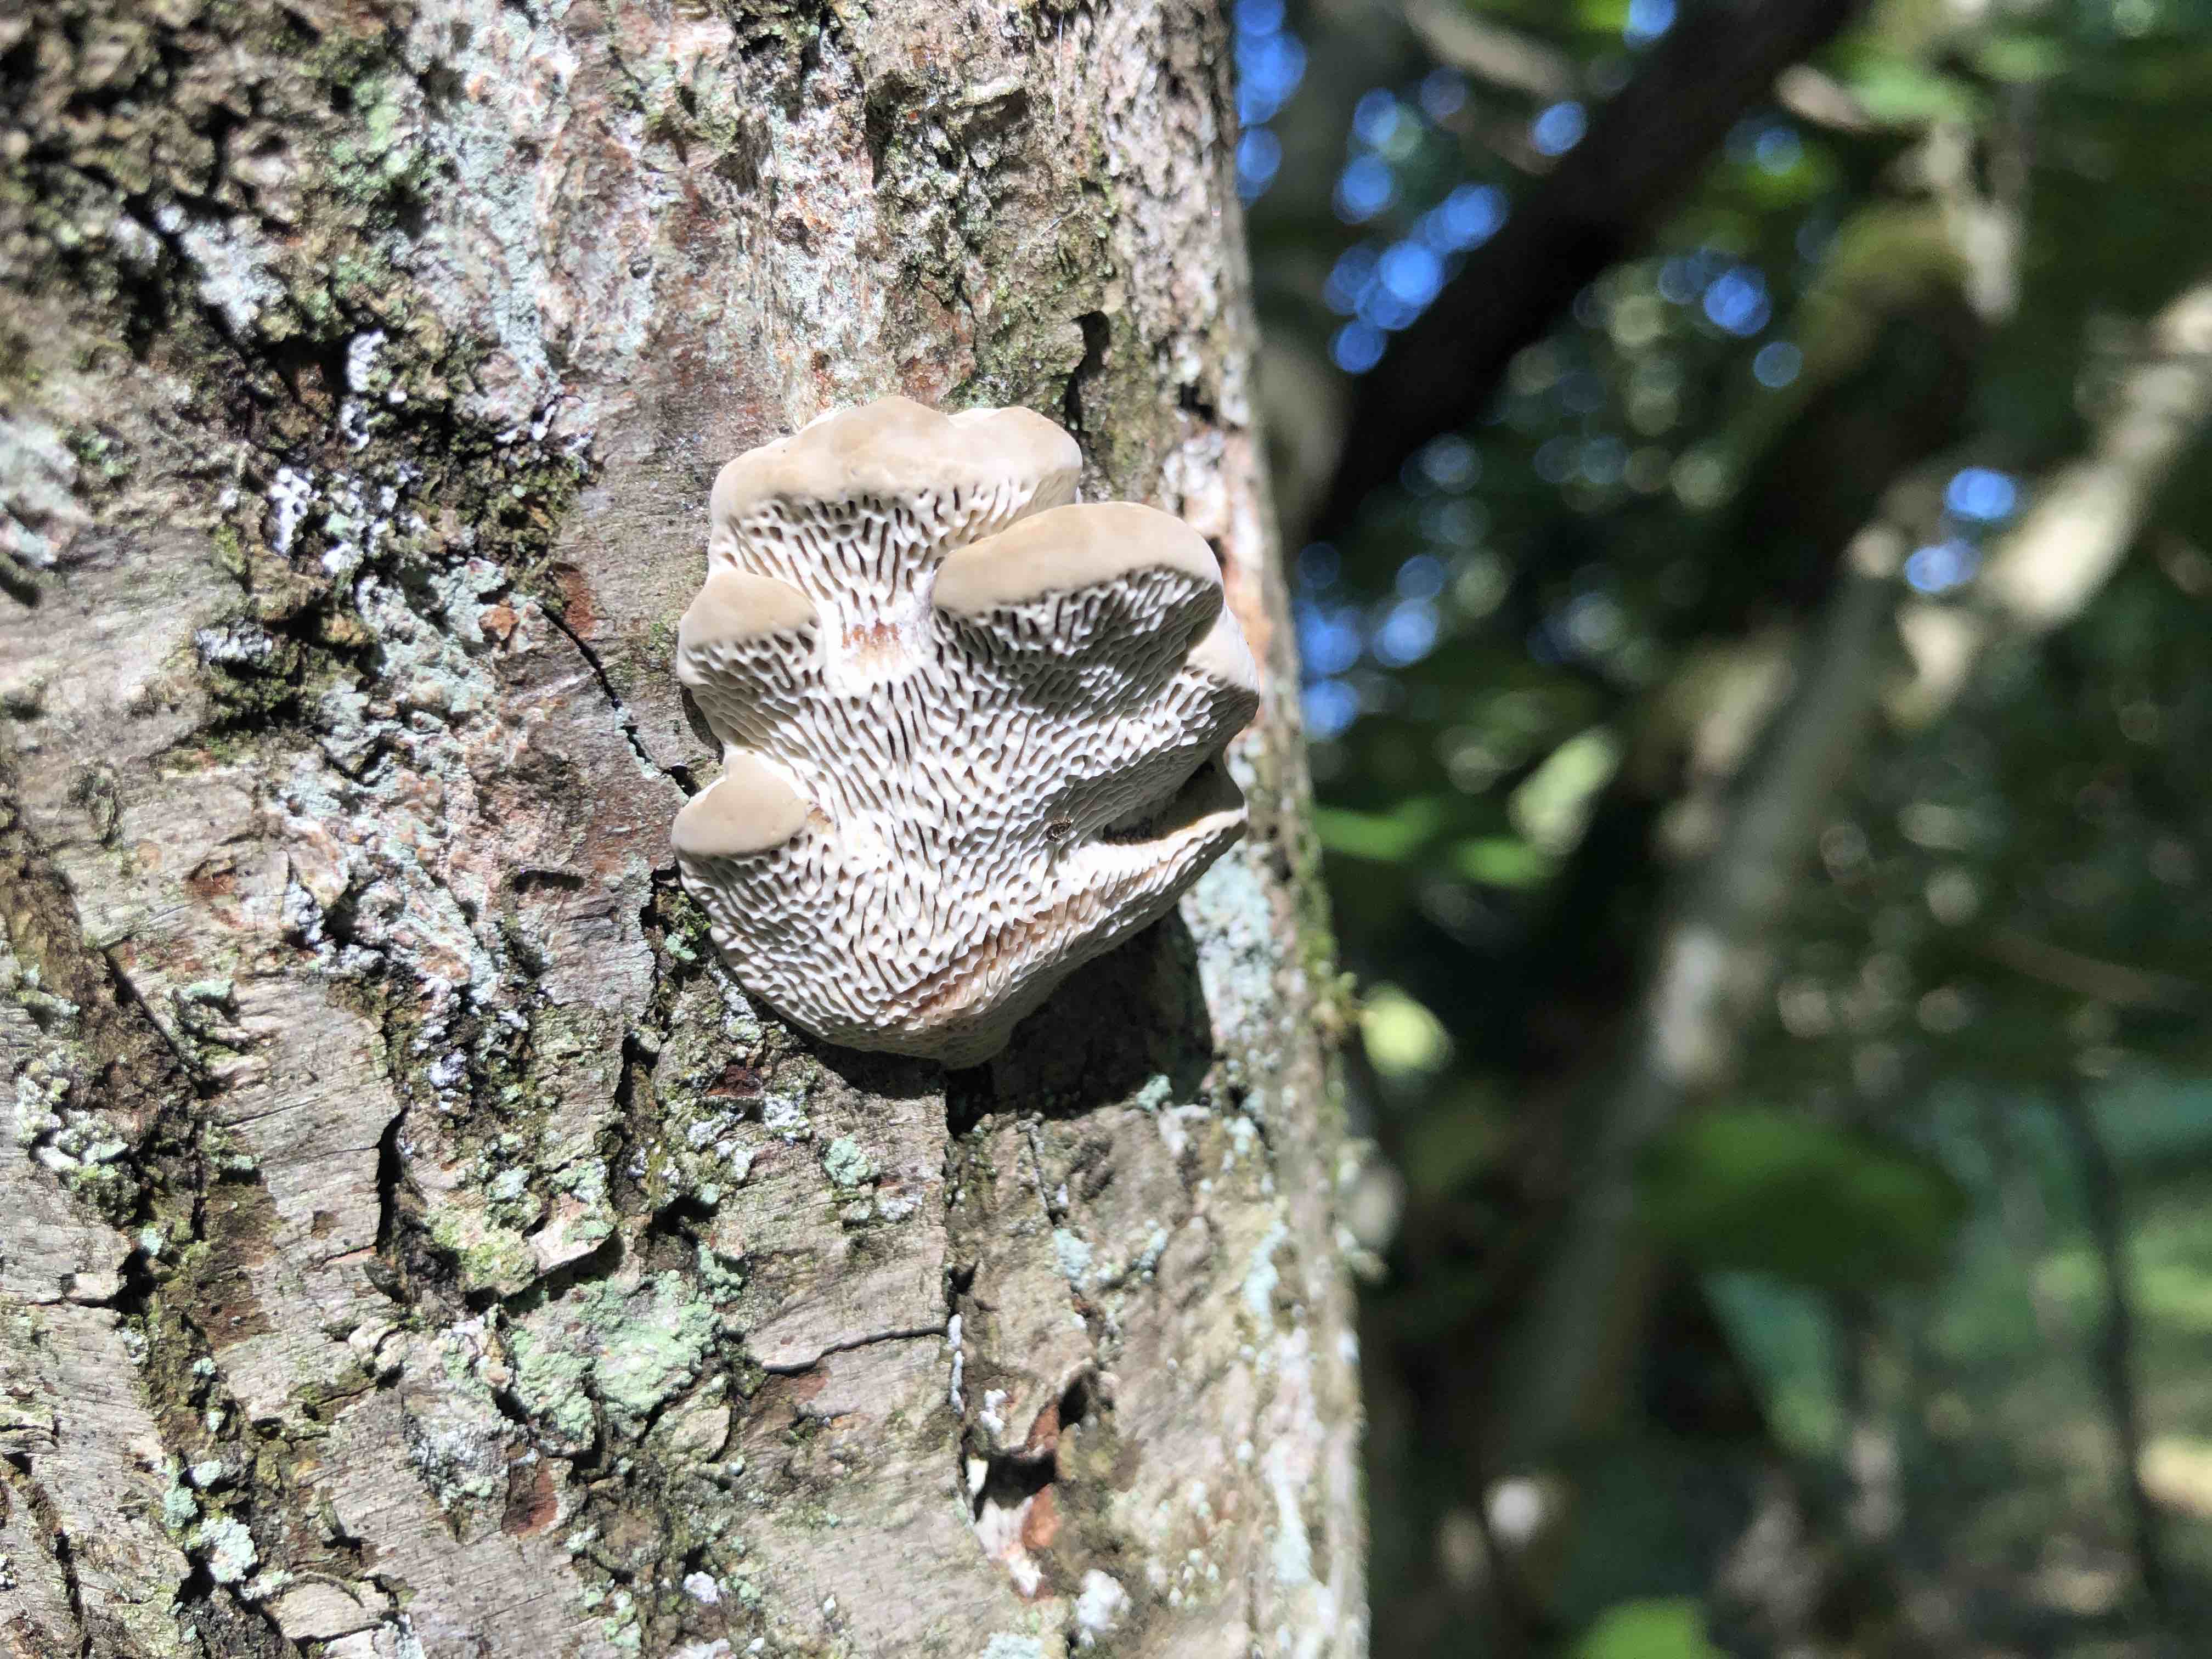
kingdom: Fungi
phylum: Basidiomycota
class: Agaricomycetes
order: Polyporales
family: Polyporaceae
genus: Daedaleopsis
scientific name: Daedaleopsis confragosa
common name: rødmende læderporesvamp
